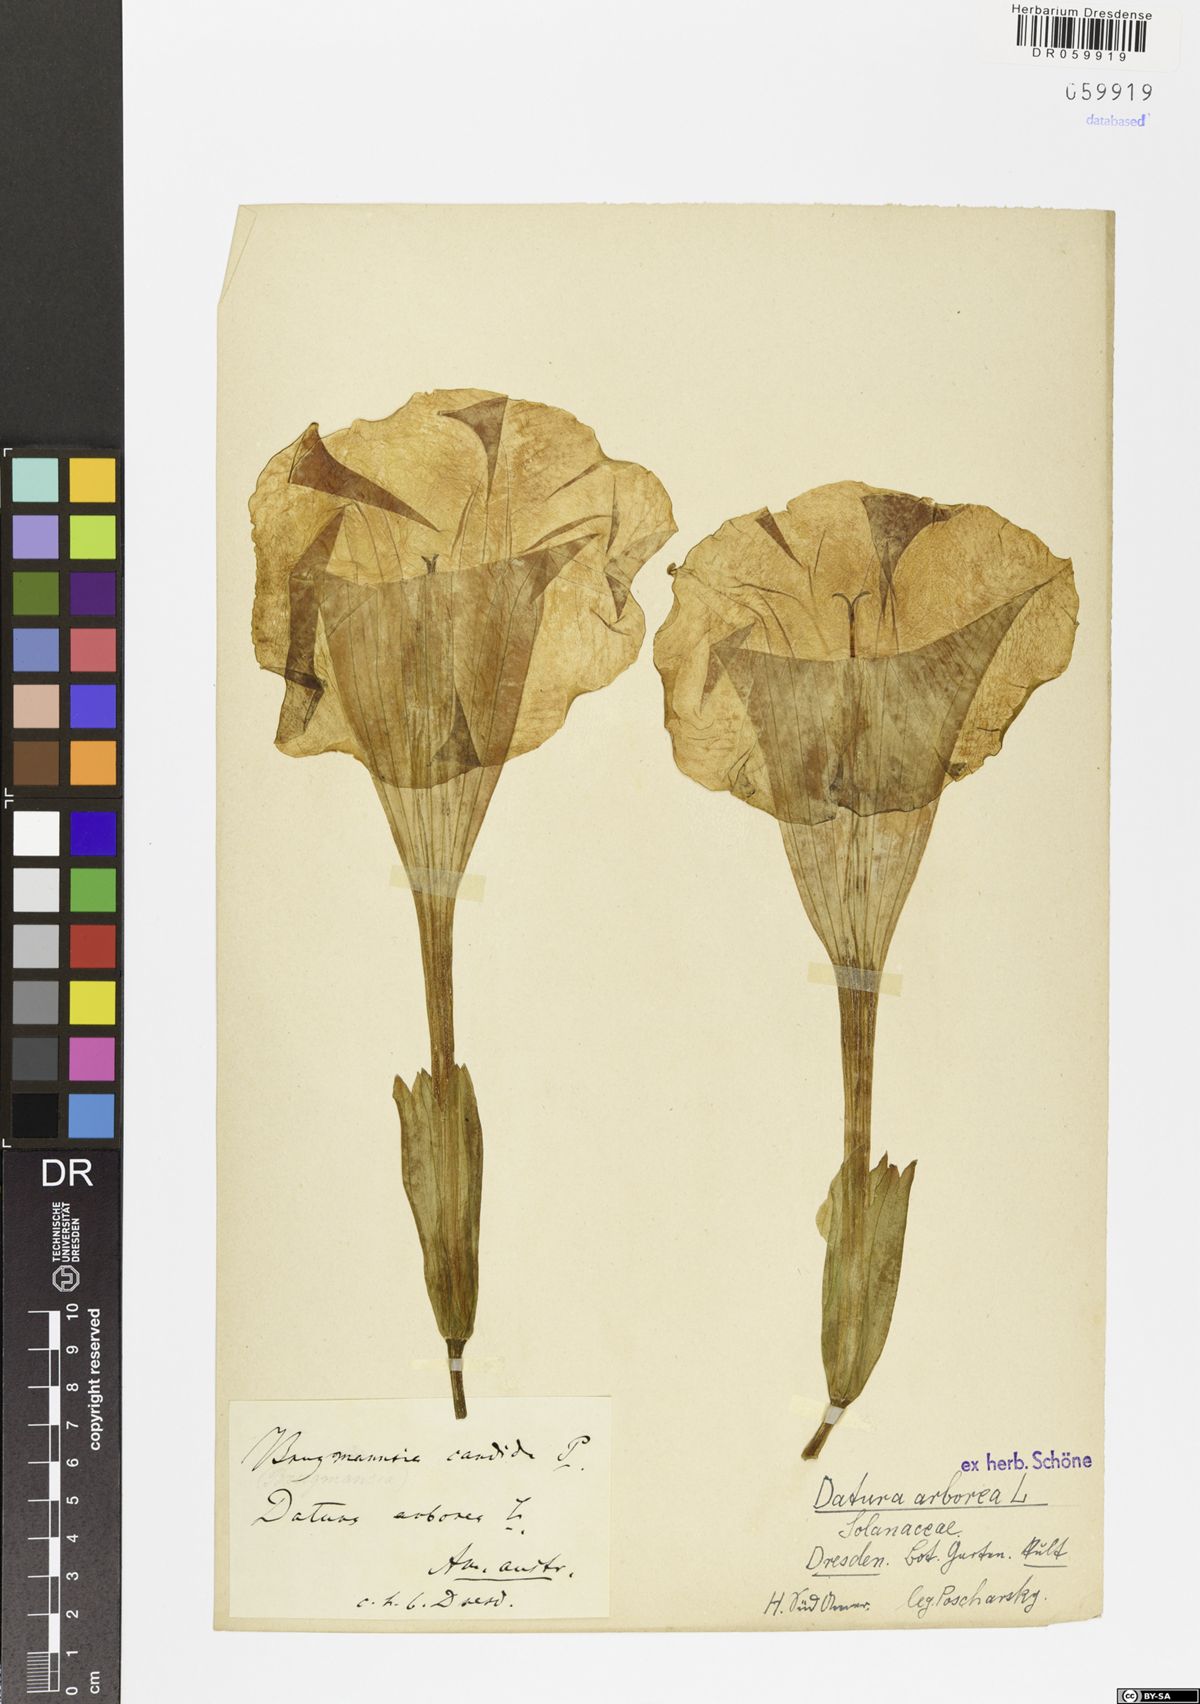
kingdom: Plantae
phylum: Tracheophyta
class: Magnoliopsida
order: Solanales
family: Solanaceae
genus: Brugmansia
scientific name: Brugmansia arborea
